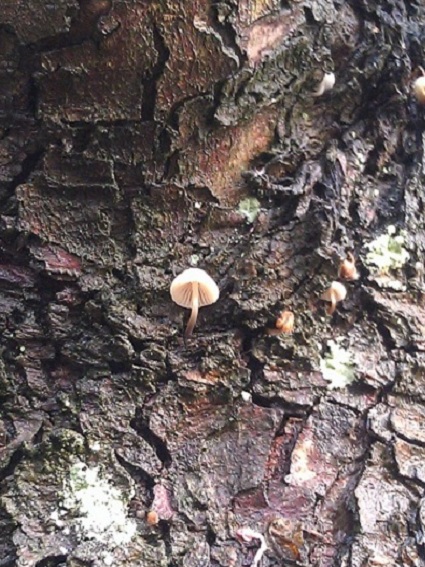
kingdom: Fungi
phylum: Basidiomycota
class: Agaricomycetes
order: Agaricales
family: Mycenaceae
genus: Mycena
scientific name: Mycena arcangeliana
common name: oliven-huesvamp
